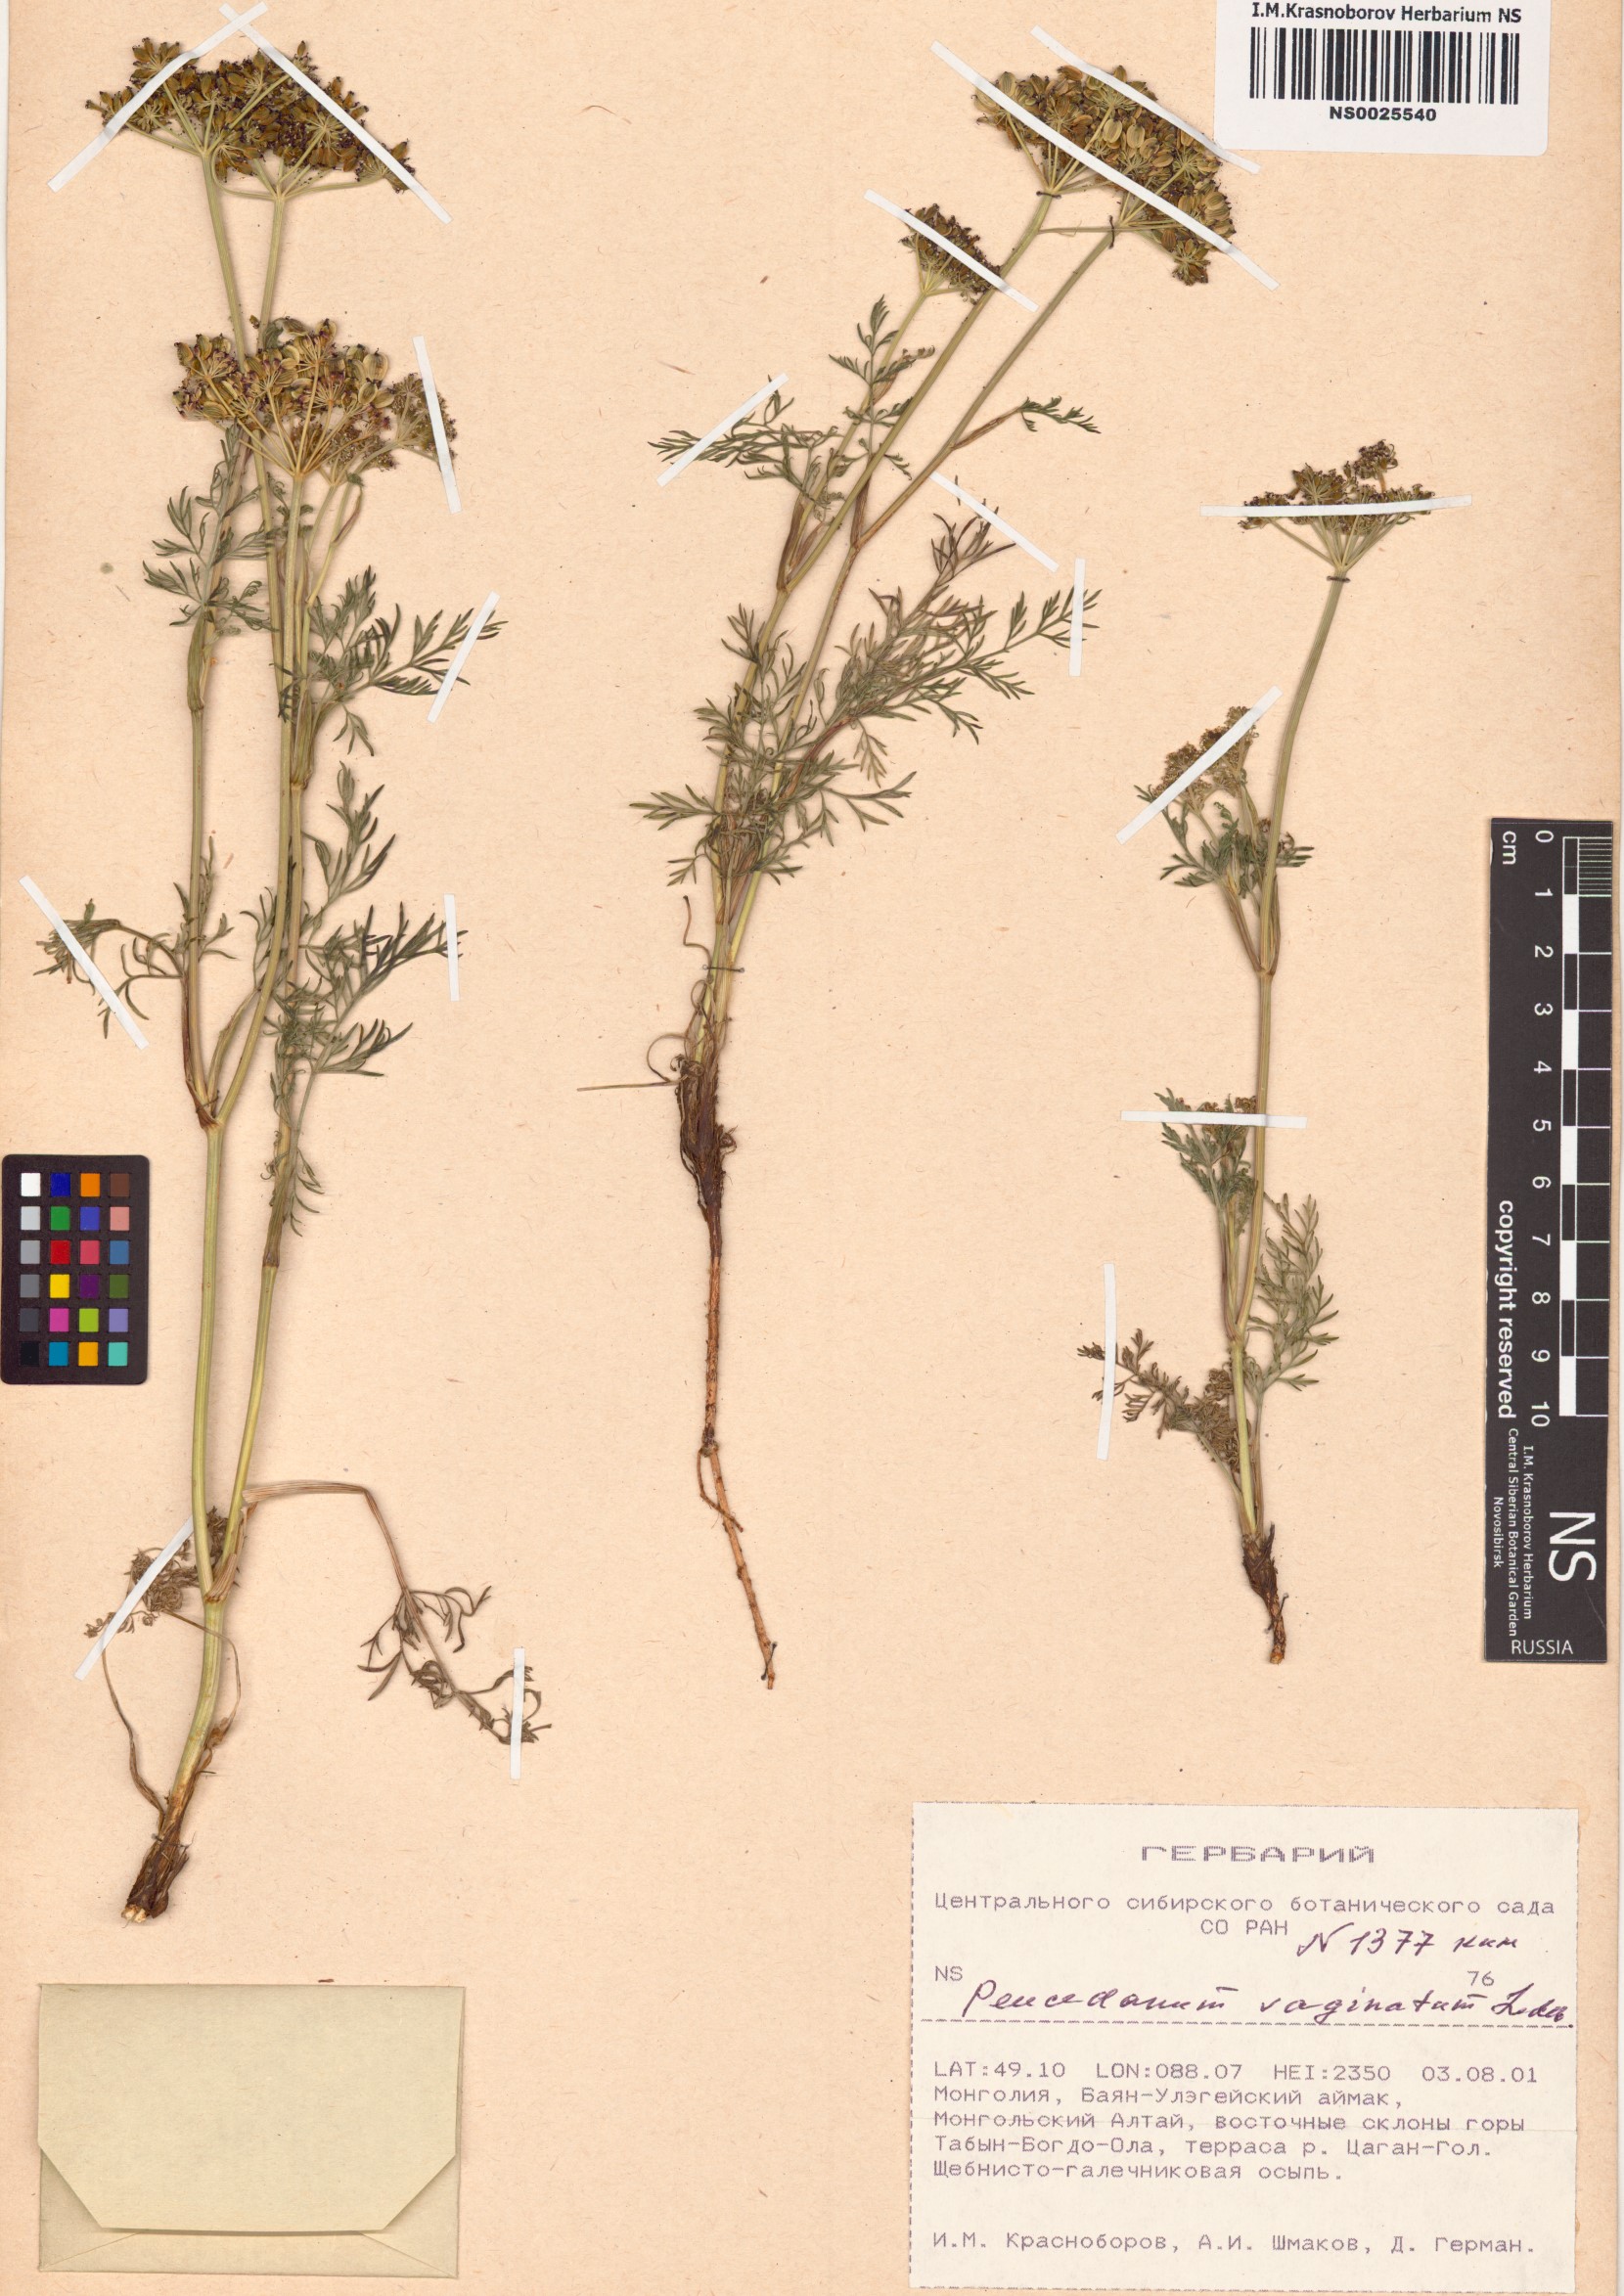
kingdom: Plantae
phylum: Tracheophyta
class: Magnoliopsida
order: Apiales
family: Apiaceae
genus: Peucedanum
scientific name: Peucedanum vaginatum
